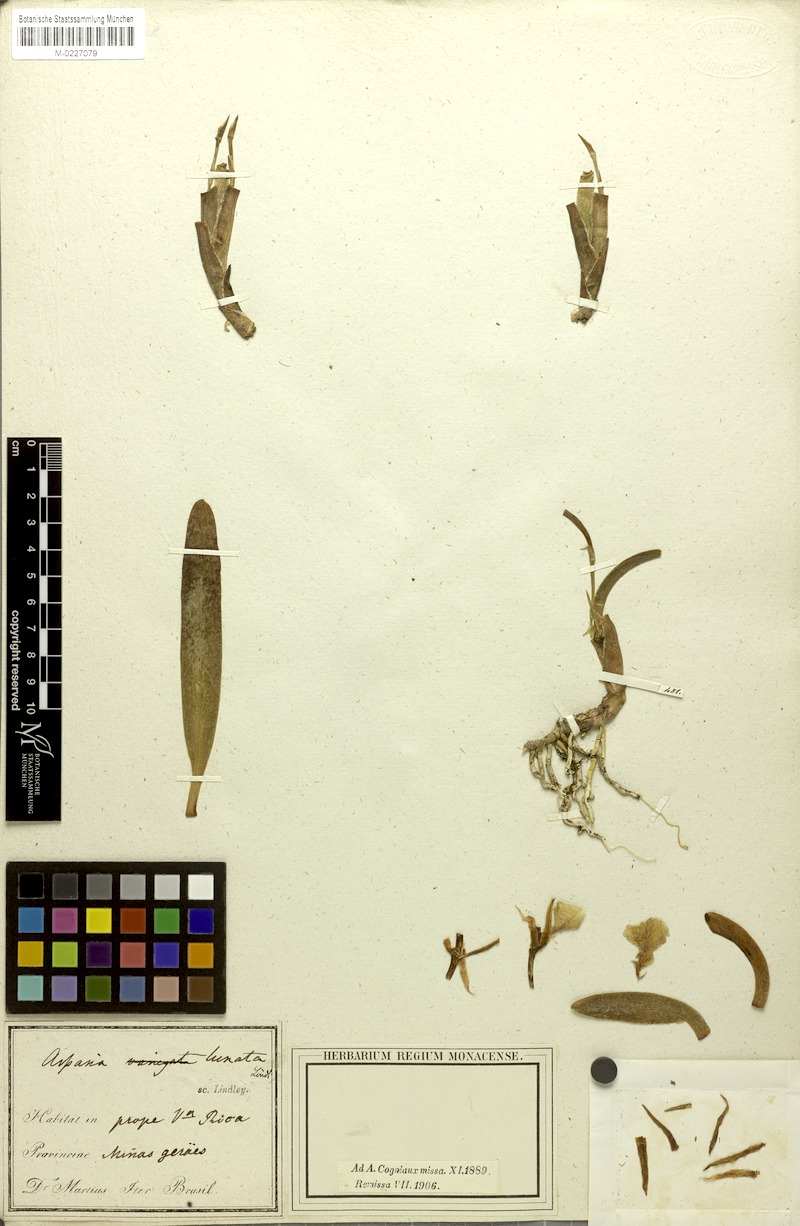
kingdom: Plantae
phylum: Tracheophyta
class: Liliopsida
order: Asparagales
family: Orchidaceae
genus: Aspasia
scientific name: Aspasia lunata
